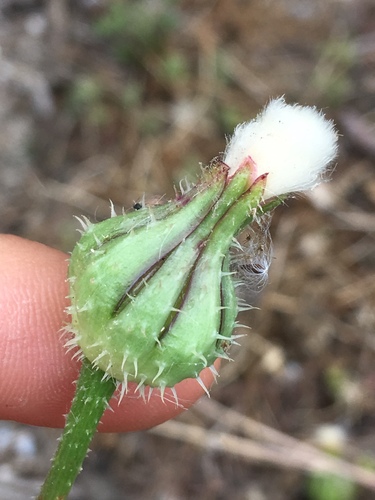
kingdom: Plantae
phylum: Tracheophyta
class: Magnoliopsida
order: Asterales
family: Asteraceae
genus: Urospermum
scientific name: Urospermum picroides
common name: False hawkbit
